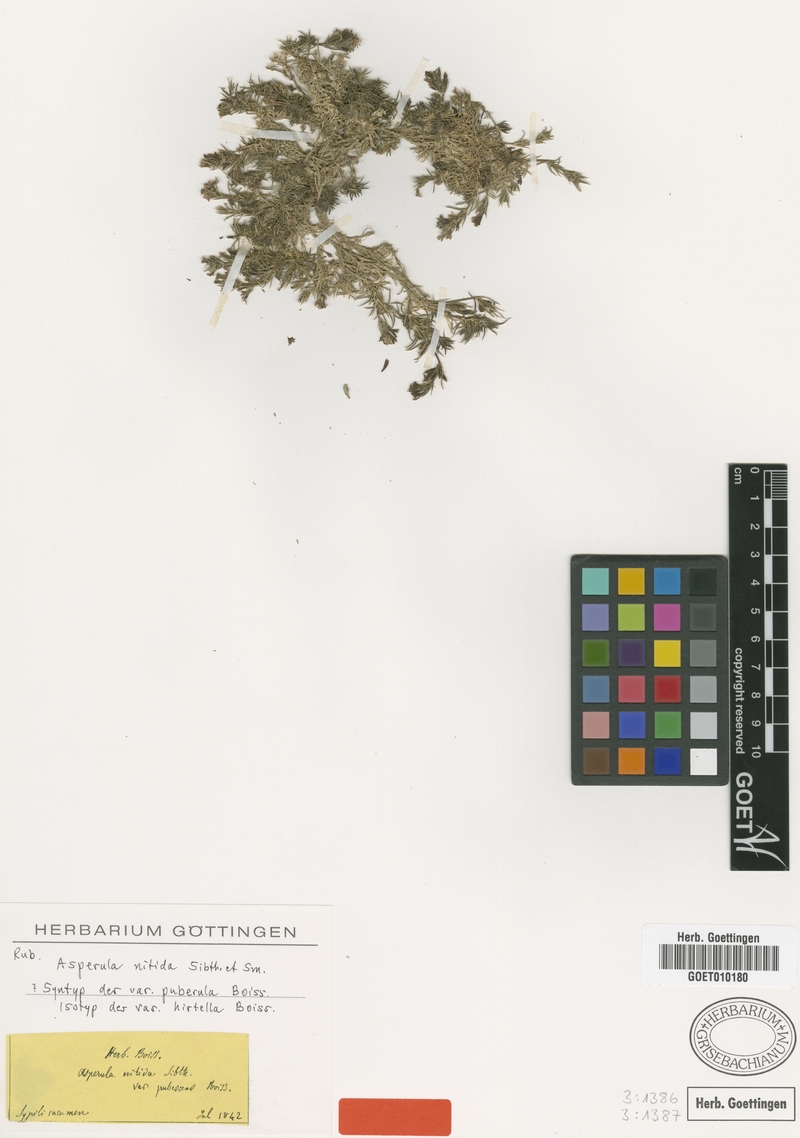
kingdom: Plantae
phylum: Tracheophyta
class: Magnoliopsida
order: Gentianales
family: Rubiaceae
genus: Cynanchica
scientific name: Cynanchica nitida
